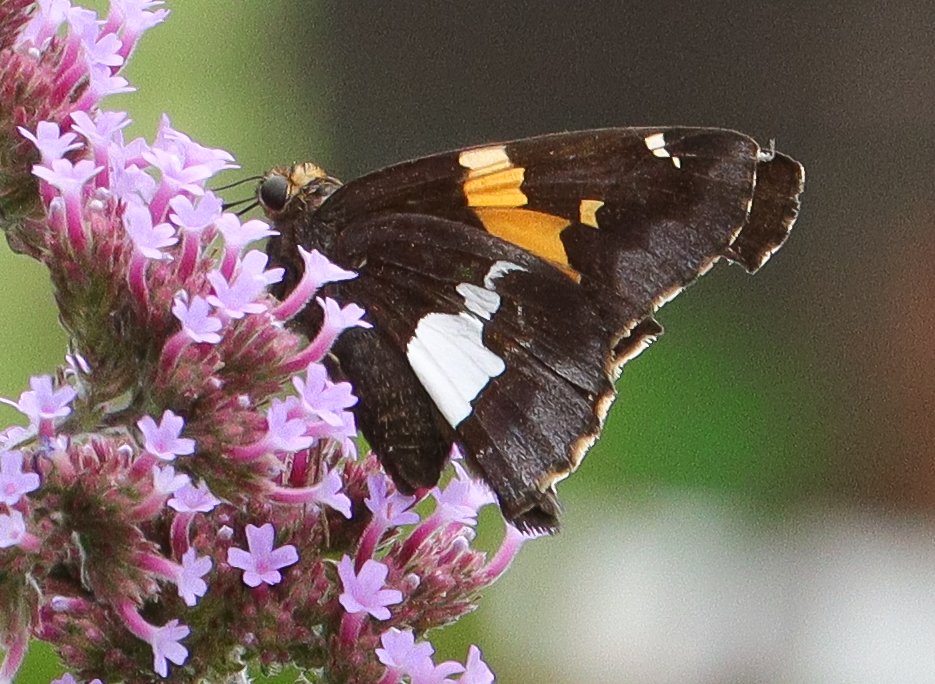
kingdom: Animalia
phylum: Arthropoda
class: Insecta
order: Lepidoptera
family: Hesperiidae
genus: Epargyreus
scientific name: Epargyreus clarus
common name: Silver-spotted Skipper
